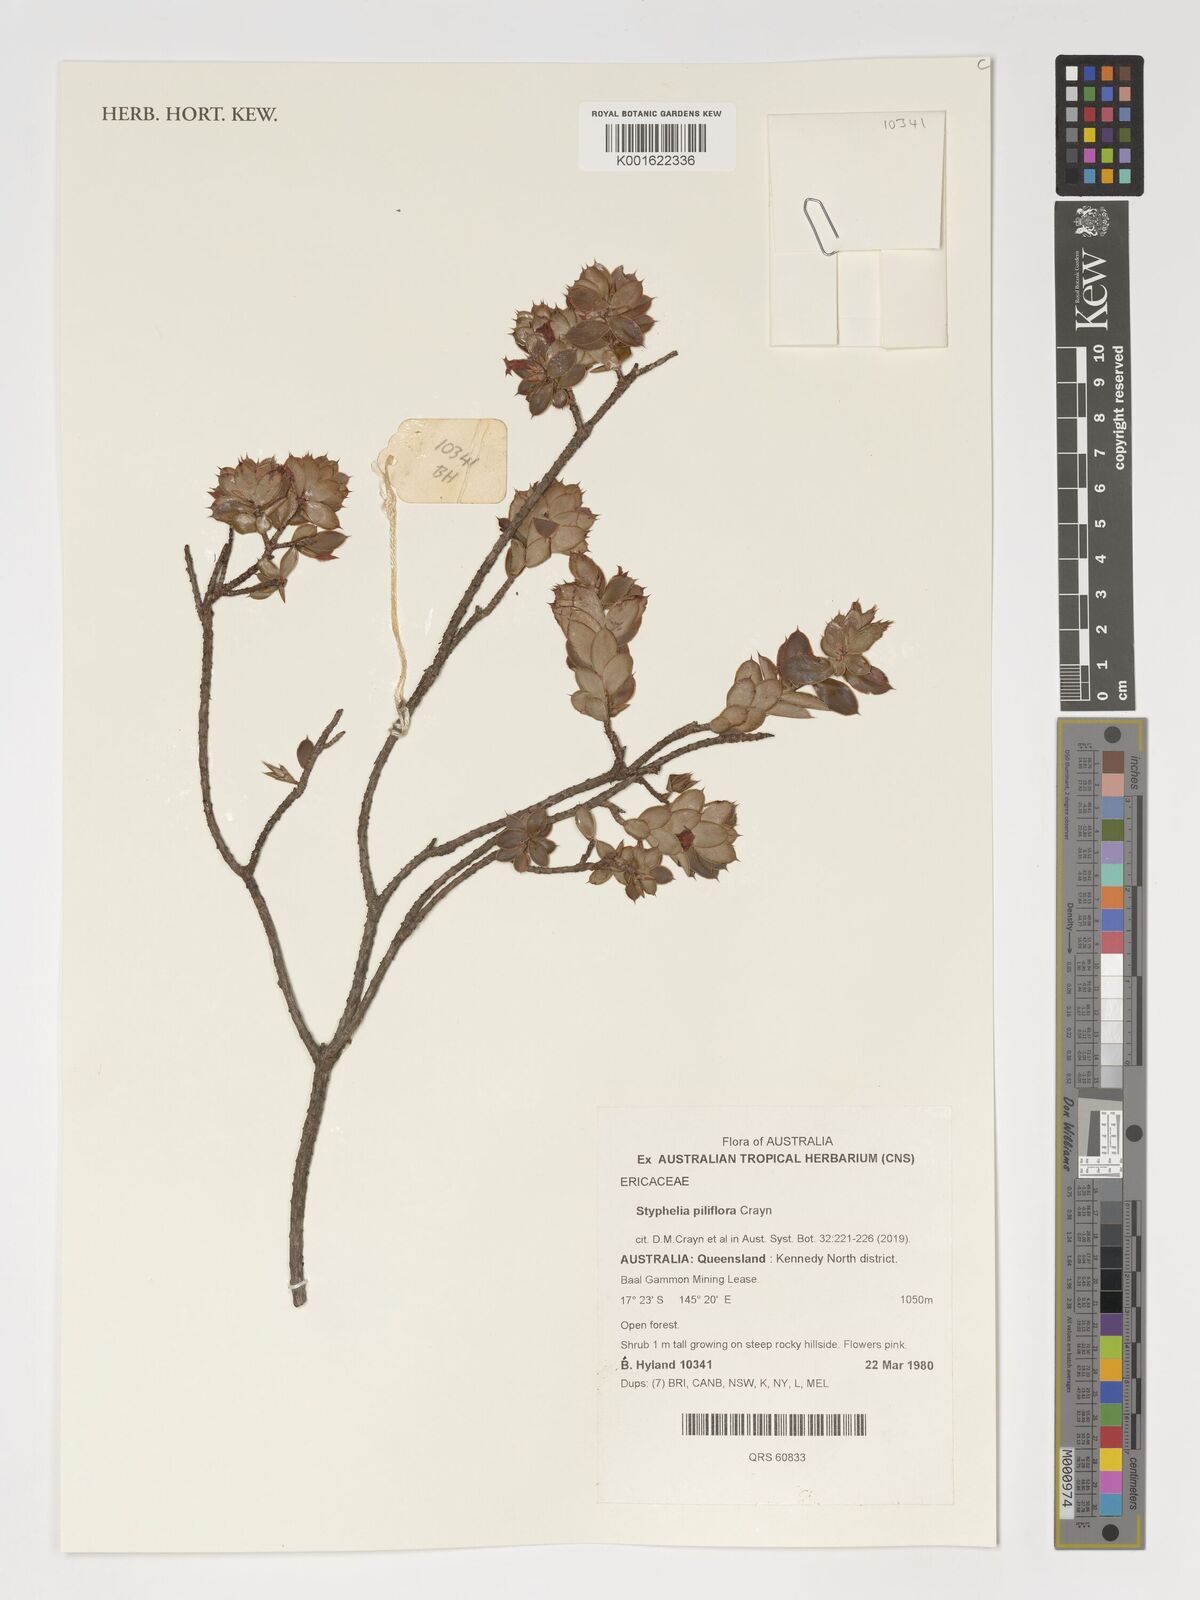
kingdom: Plantae
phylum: Tracheophyta
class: Magnoliopsida
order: Ericales
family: Ericaceae
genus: Styphelia
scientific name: Styphelia piliflora
